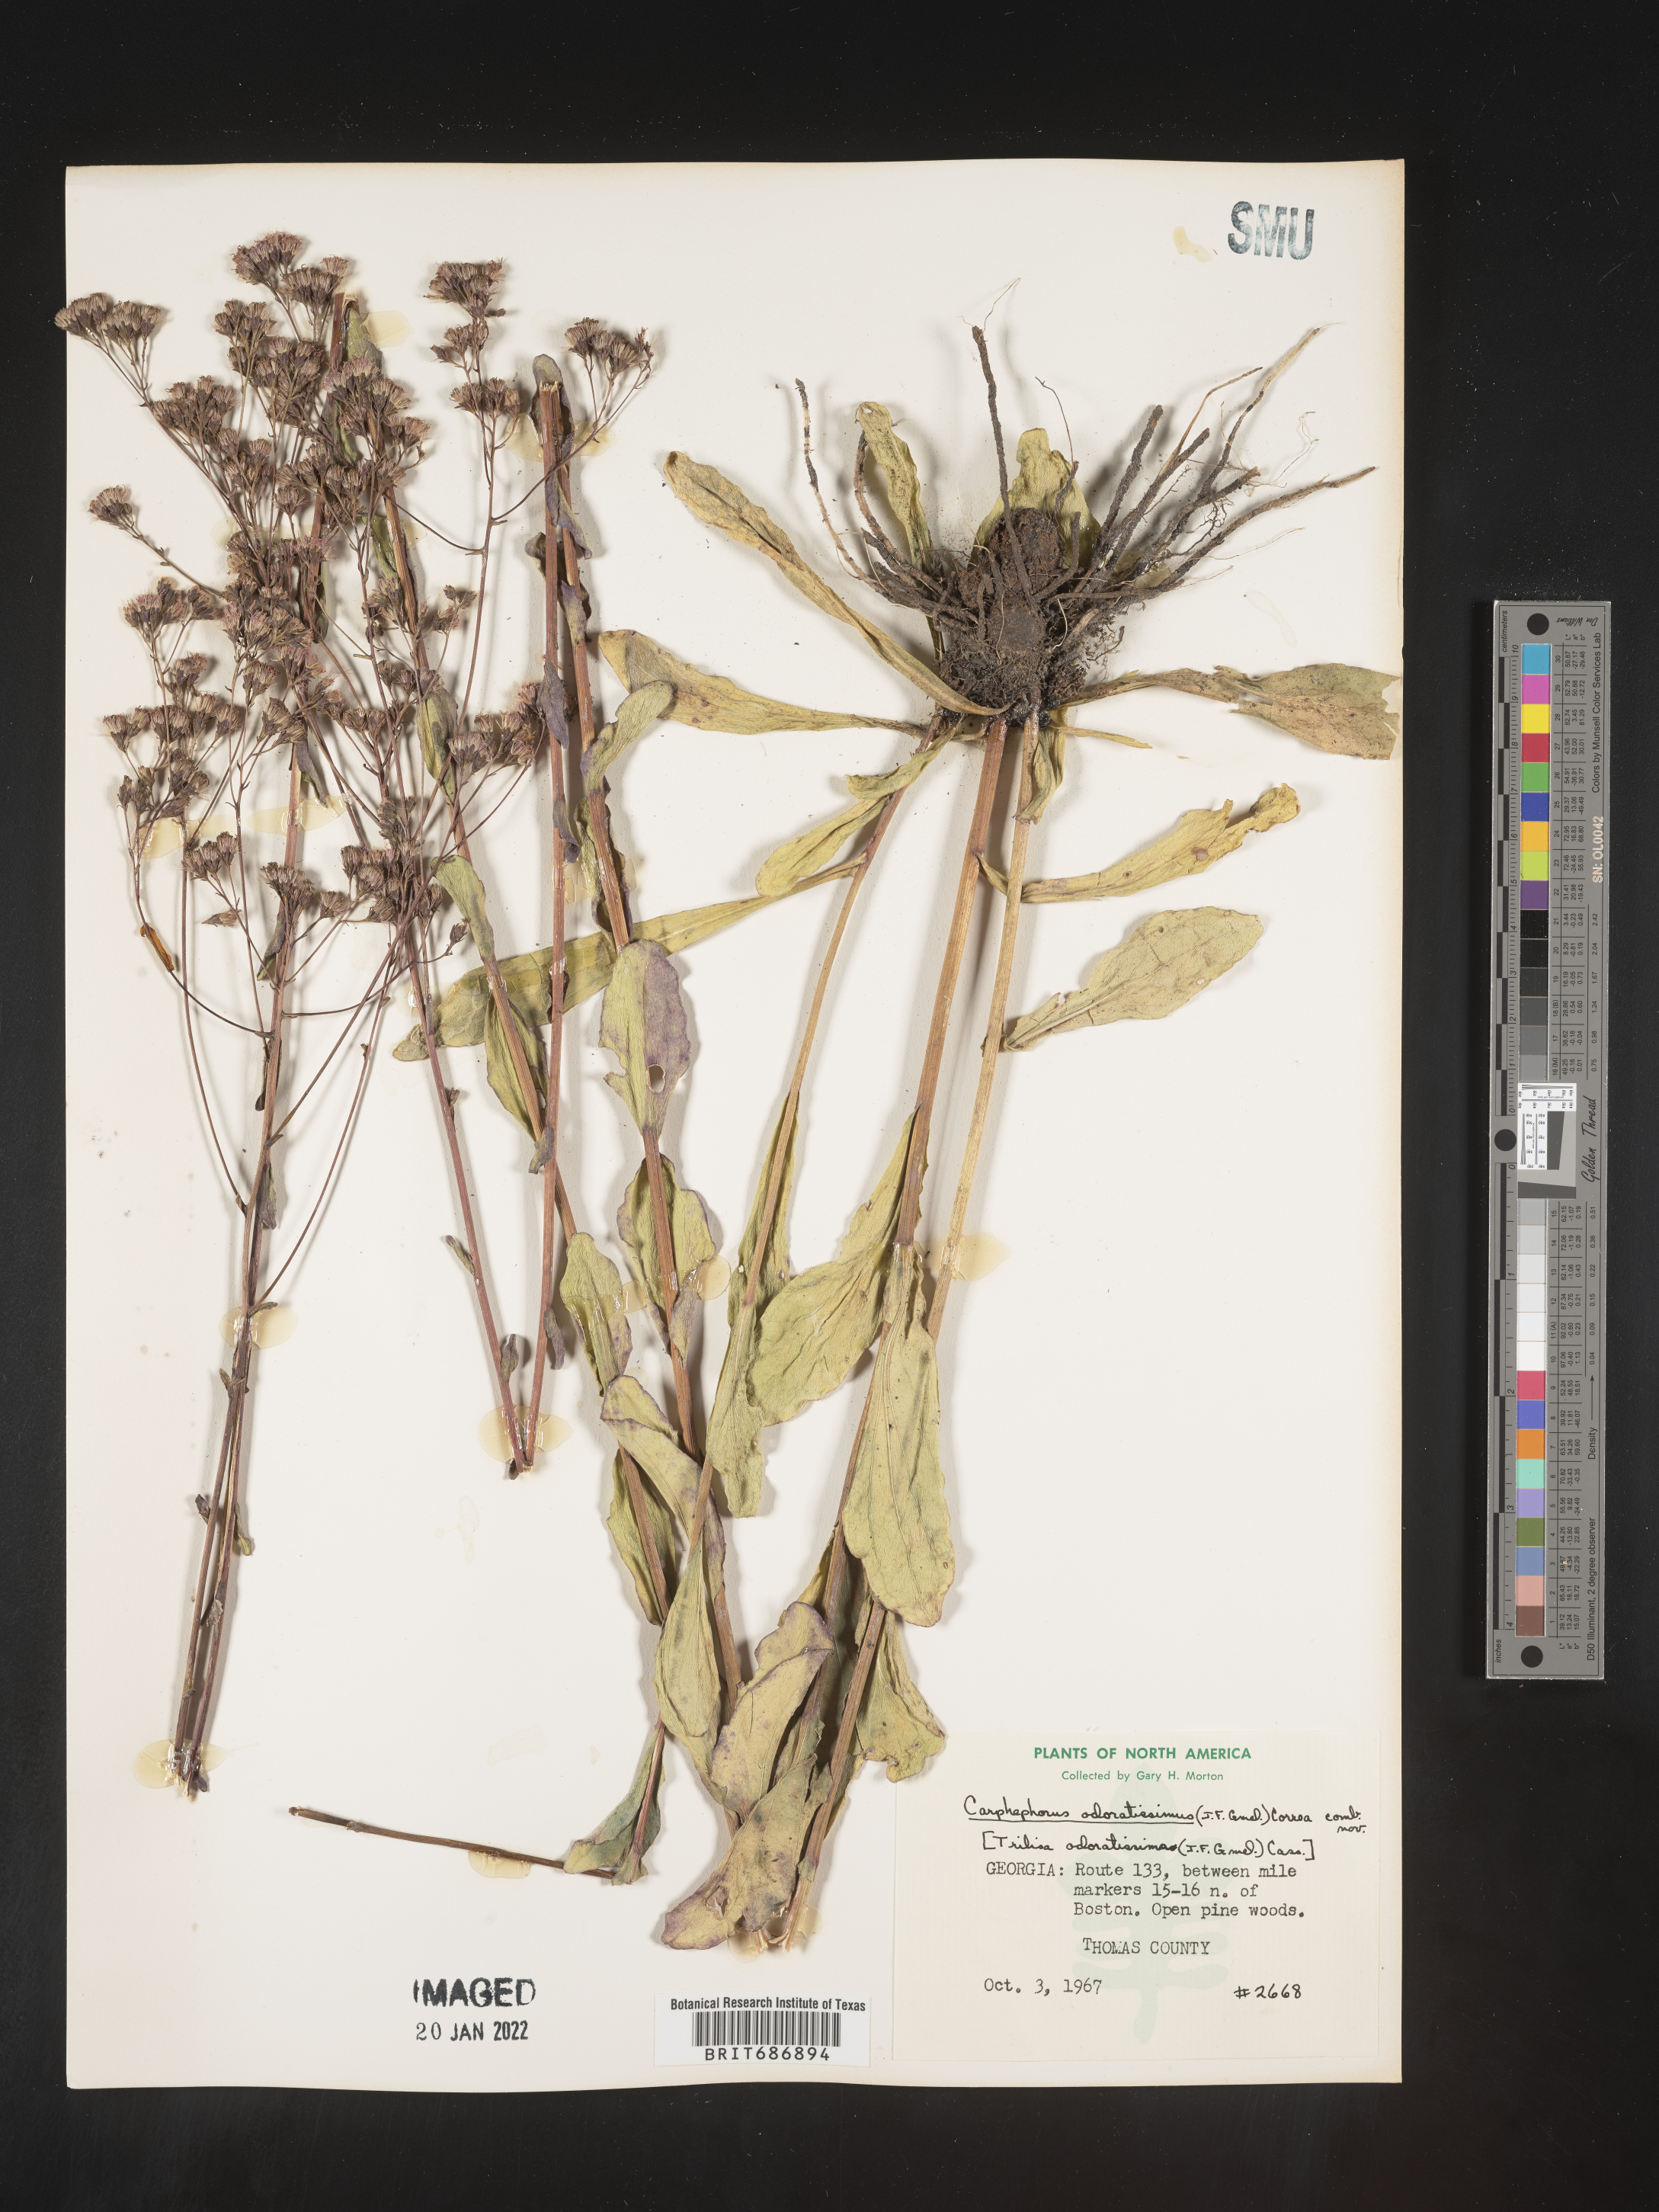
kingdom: Plantae
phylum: Tracheophyta
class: Magnoliopsida
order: Asterales
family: Asteraceae
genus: Carphephorus
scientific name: Carphephorus odoratissimus
